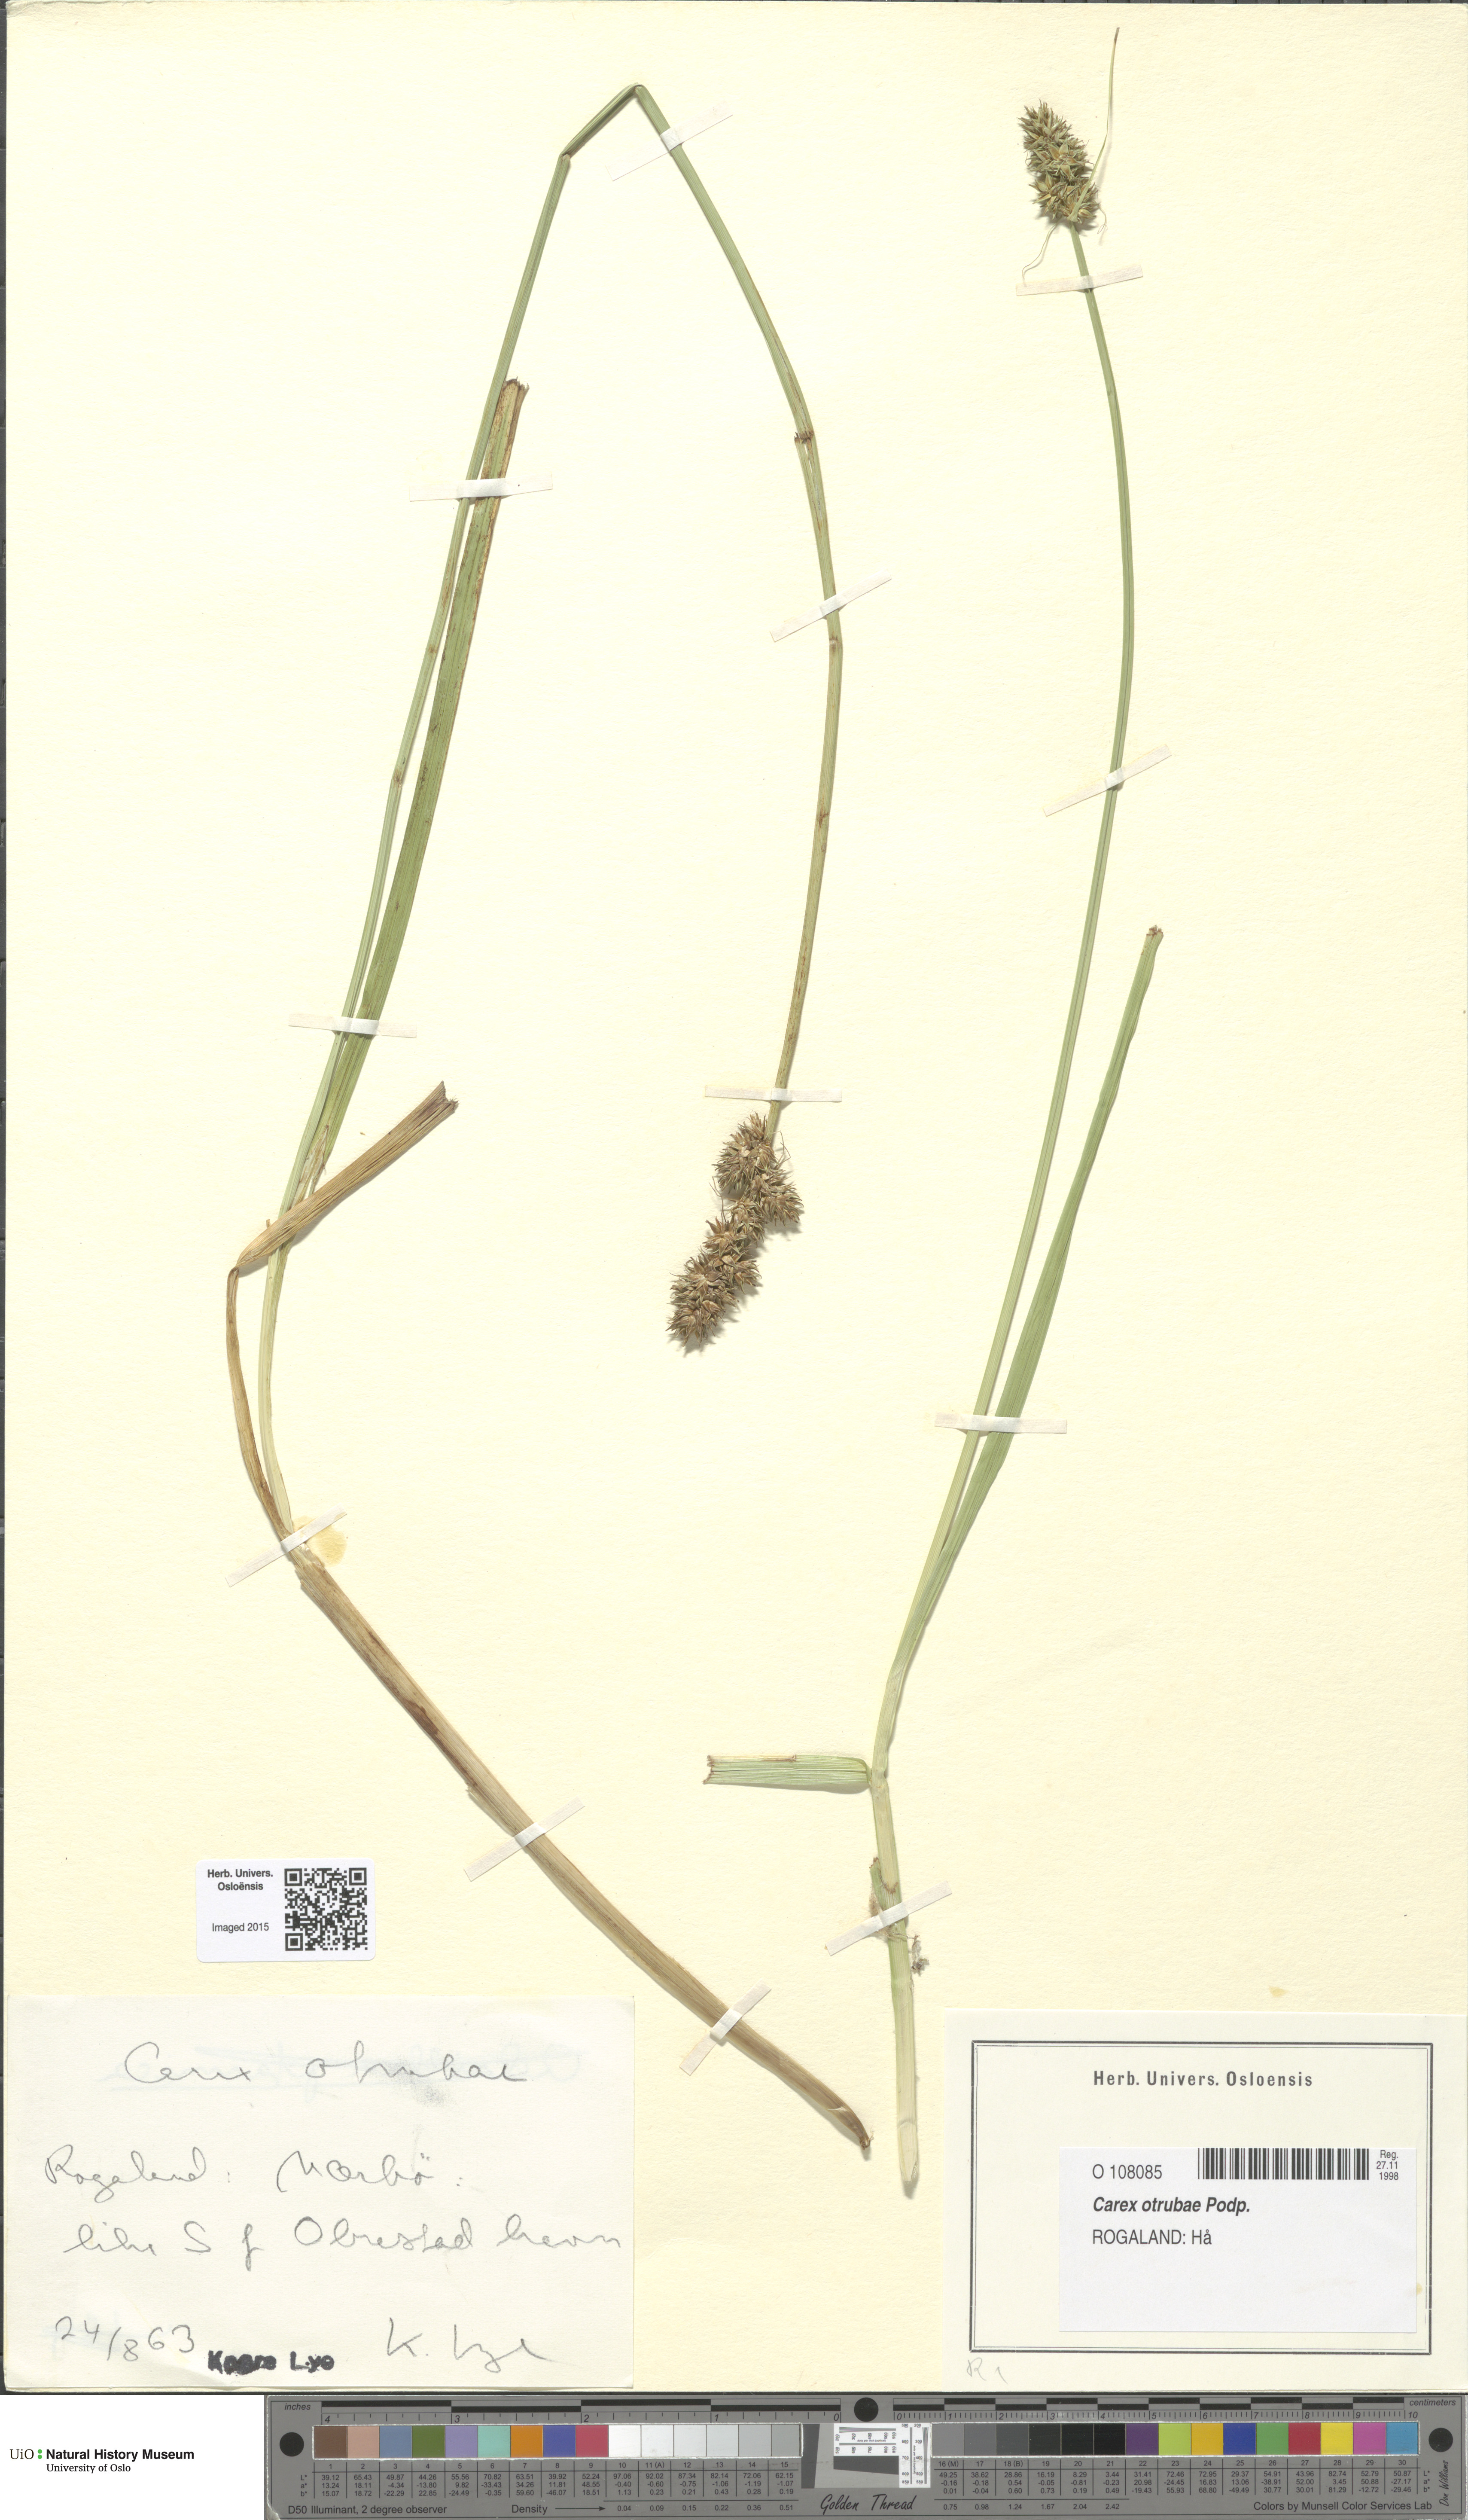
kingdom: Plantae
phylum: Tracheophyta
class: Liliopsida
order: Poales
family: Cyperaceae
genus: Carex
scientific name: Carex otrubae
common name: False fox-sedge
